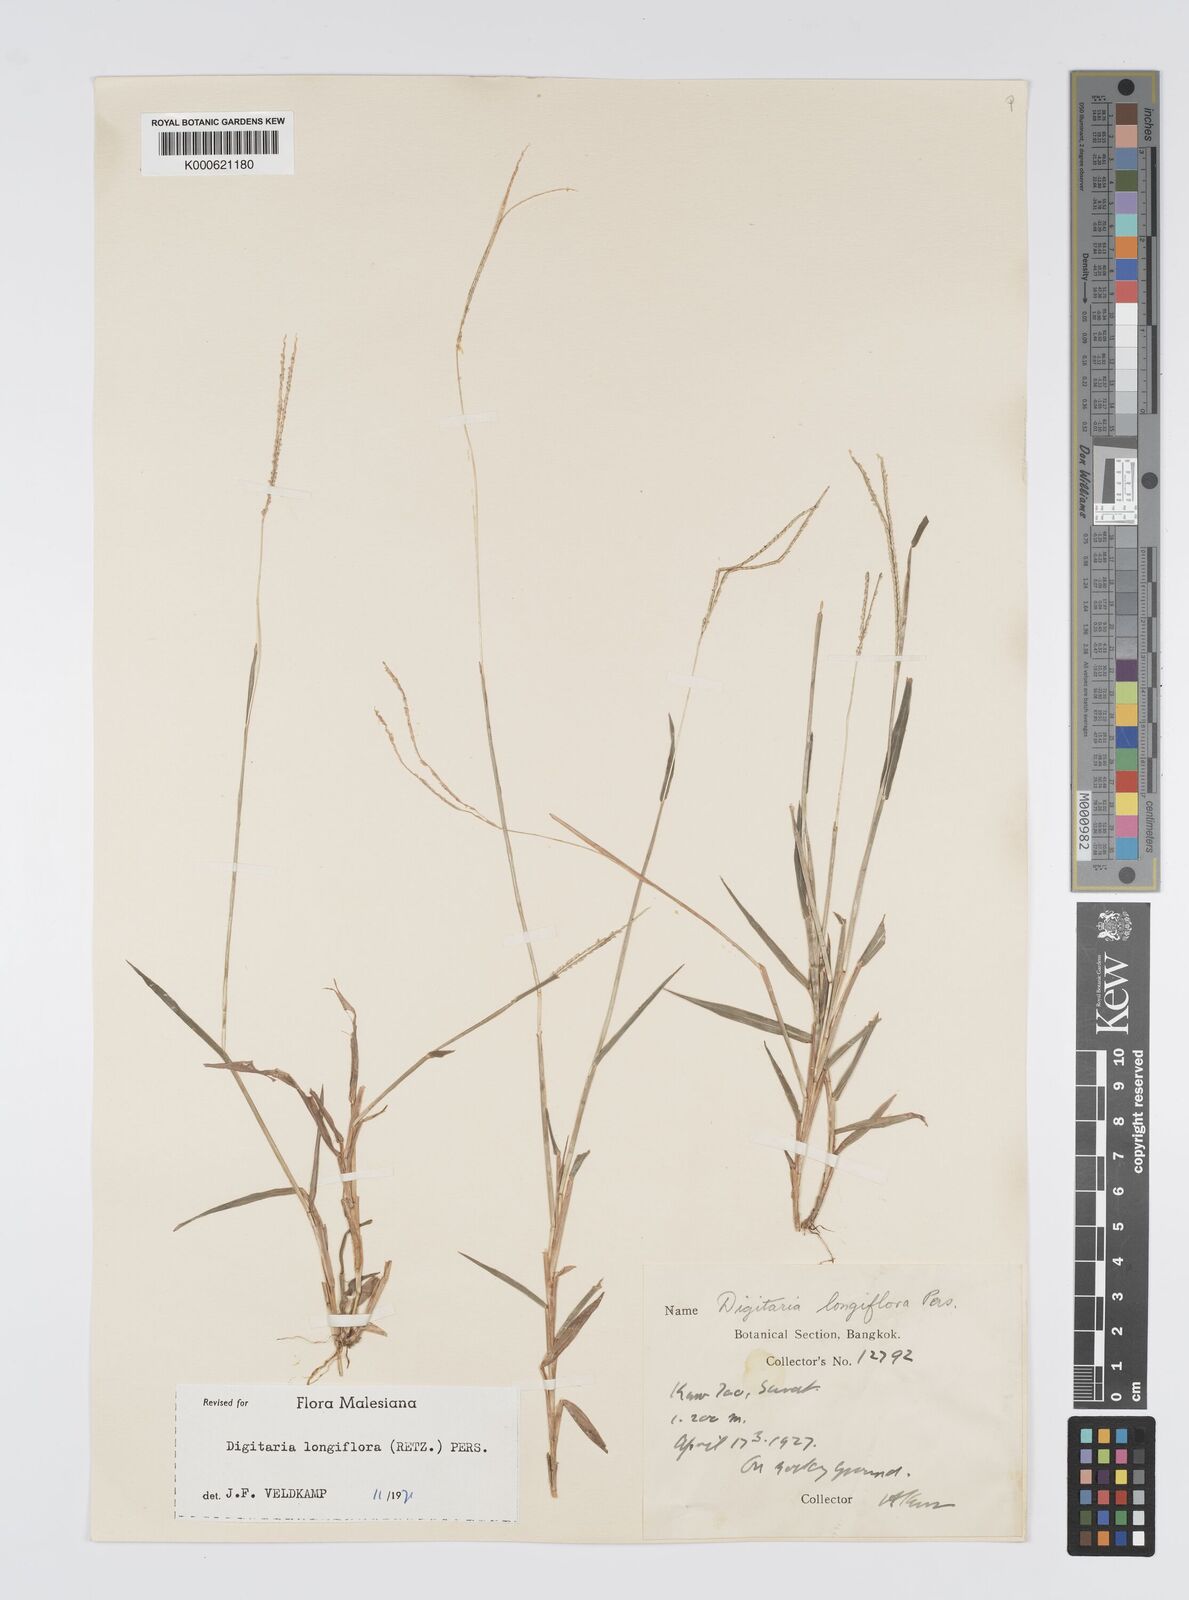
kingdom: Plantae
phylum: Tracheophyta
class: Liliopsida
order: Poales
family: Poaceae
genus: Digitaria
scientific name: Digitaria longiflora
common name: Wire crabgrass
